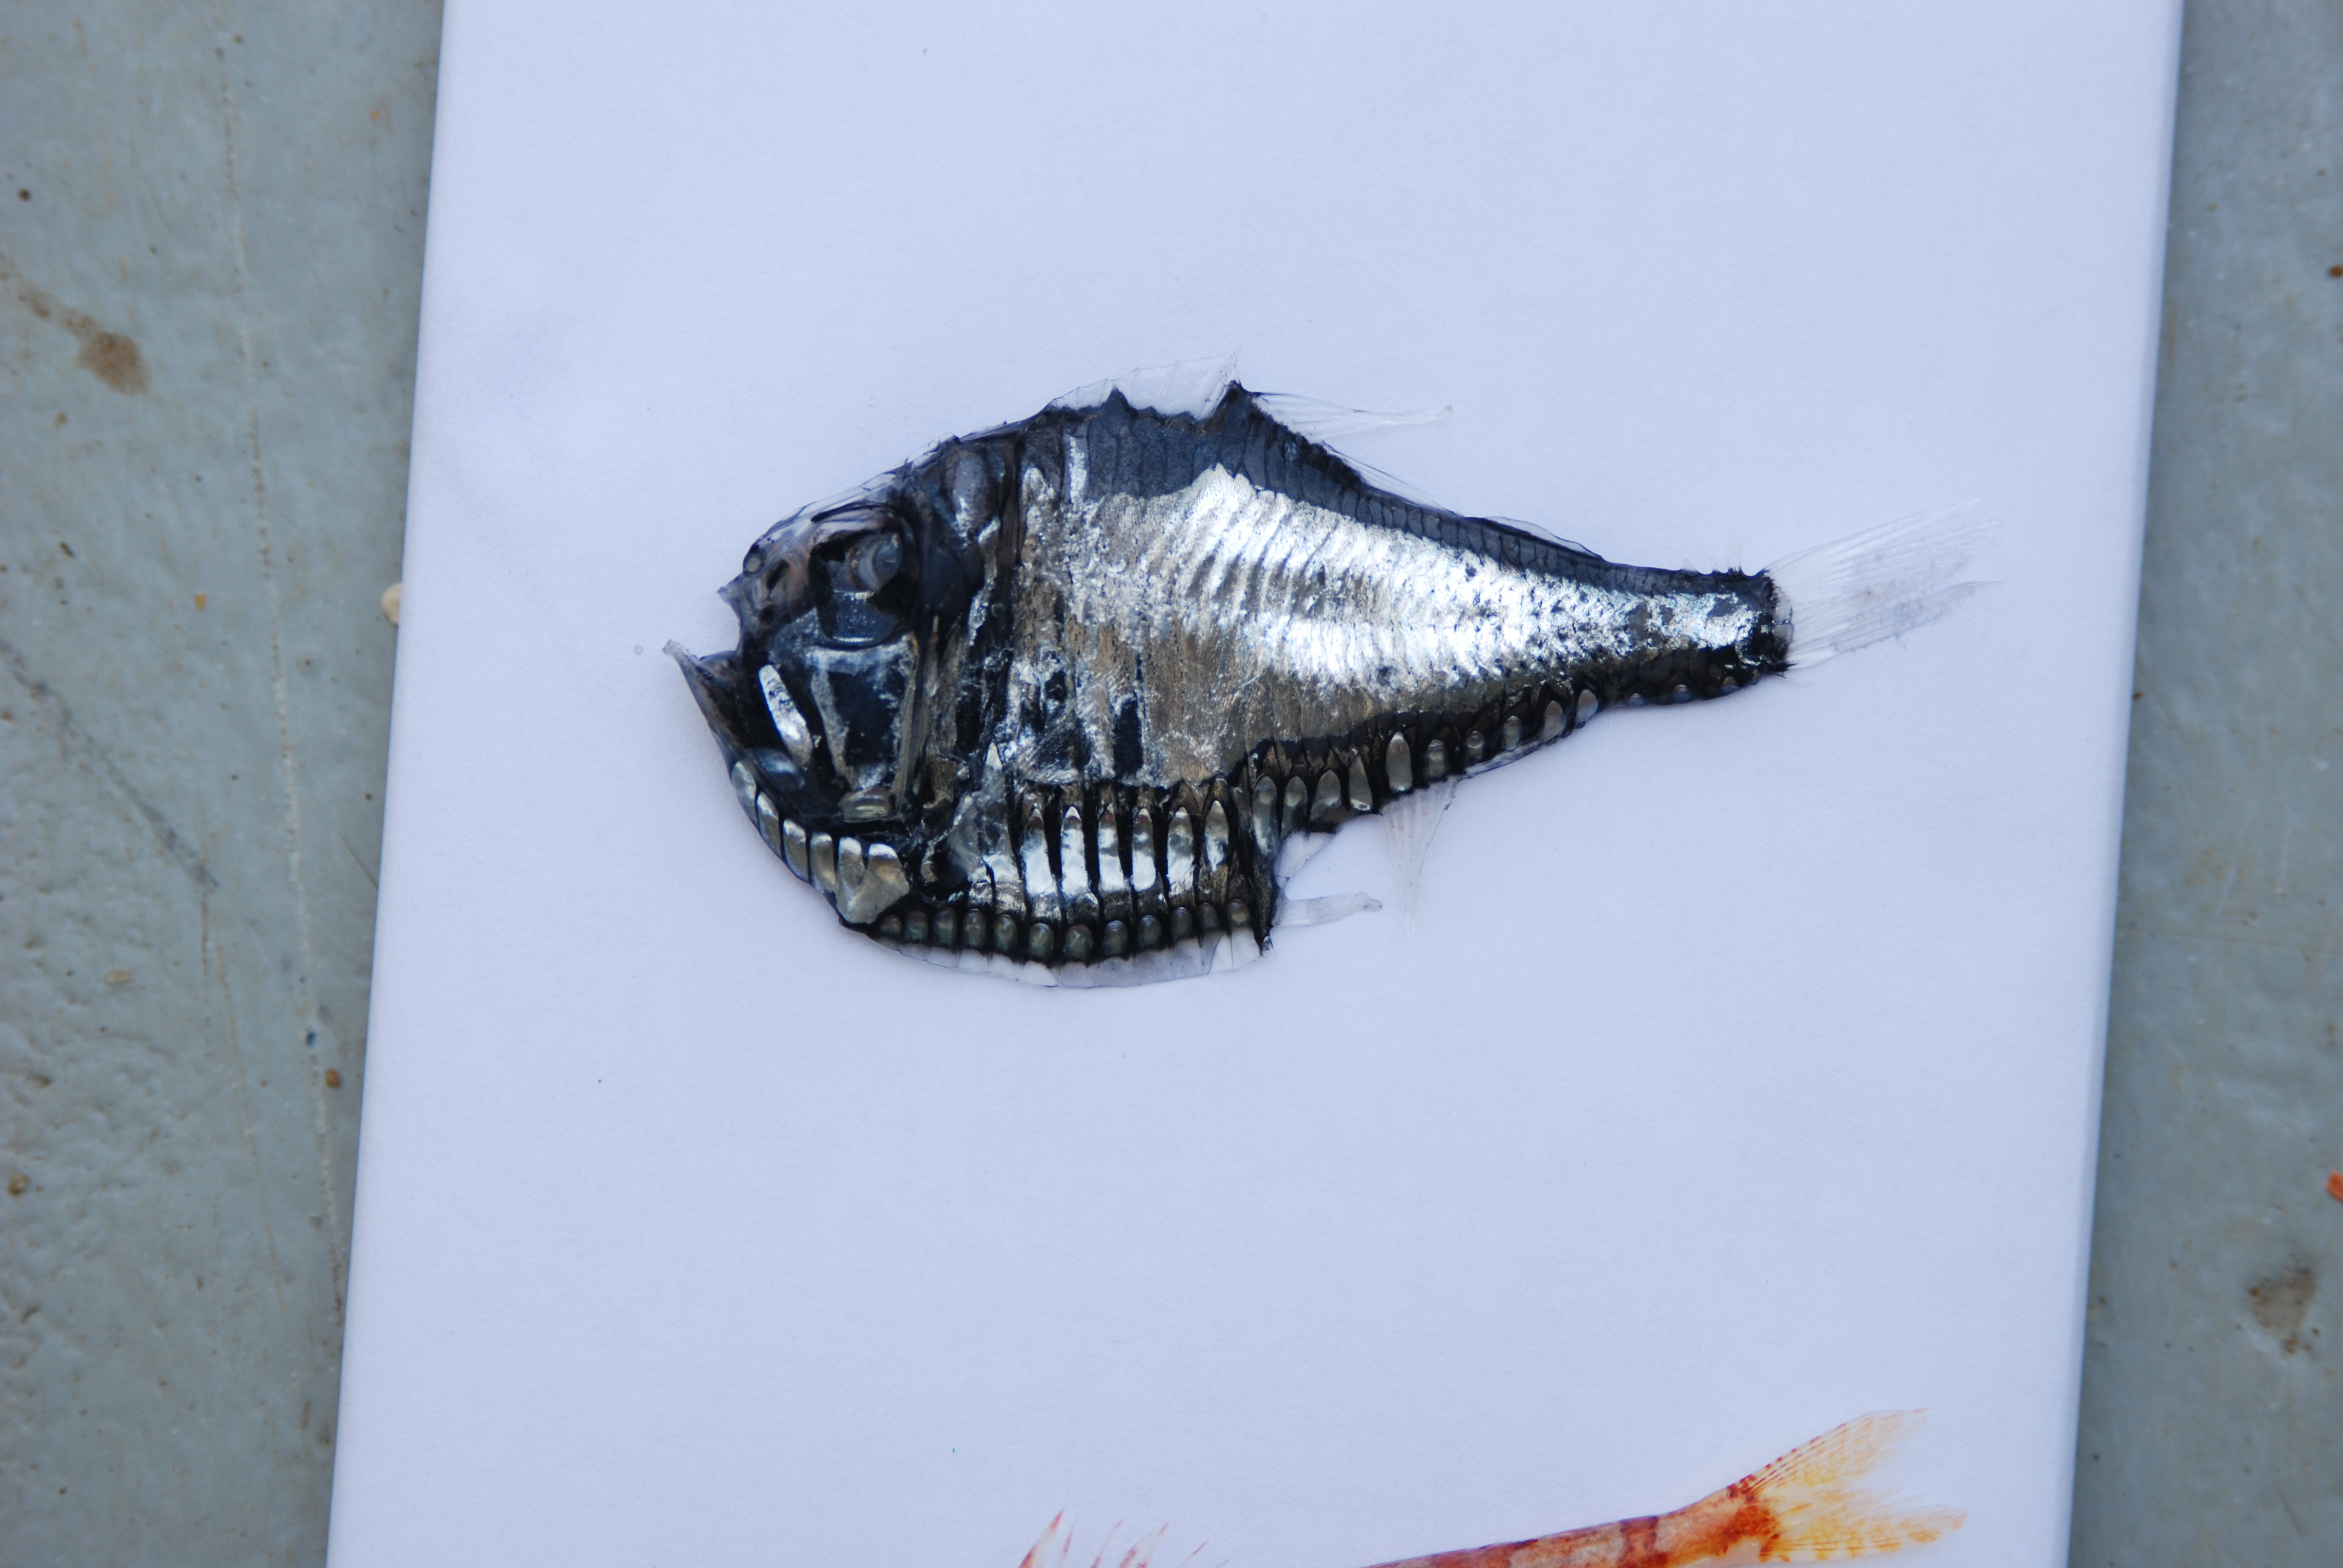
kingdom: Animalia
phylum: Chordata
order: Stomiiformes
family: Sternoptychidae
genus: Argyropelecus
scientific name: Argyropelecus gigas
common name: Giant hatchetfish
